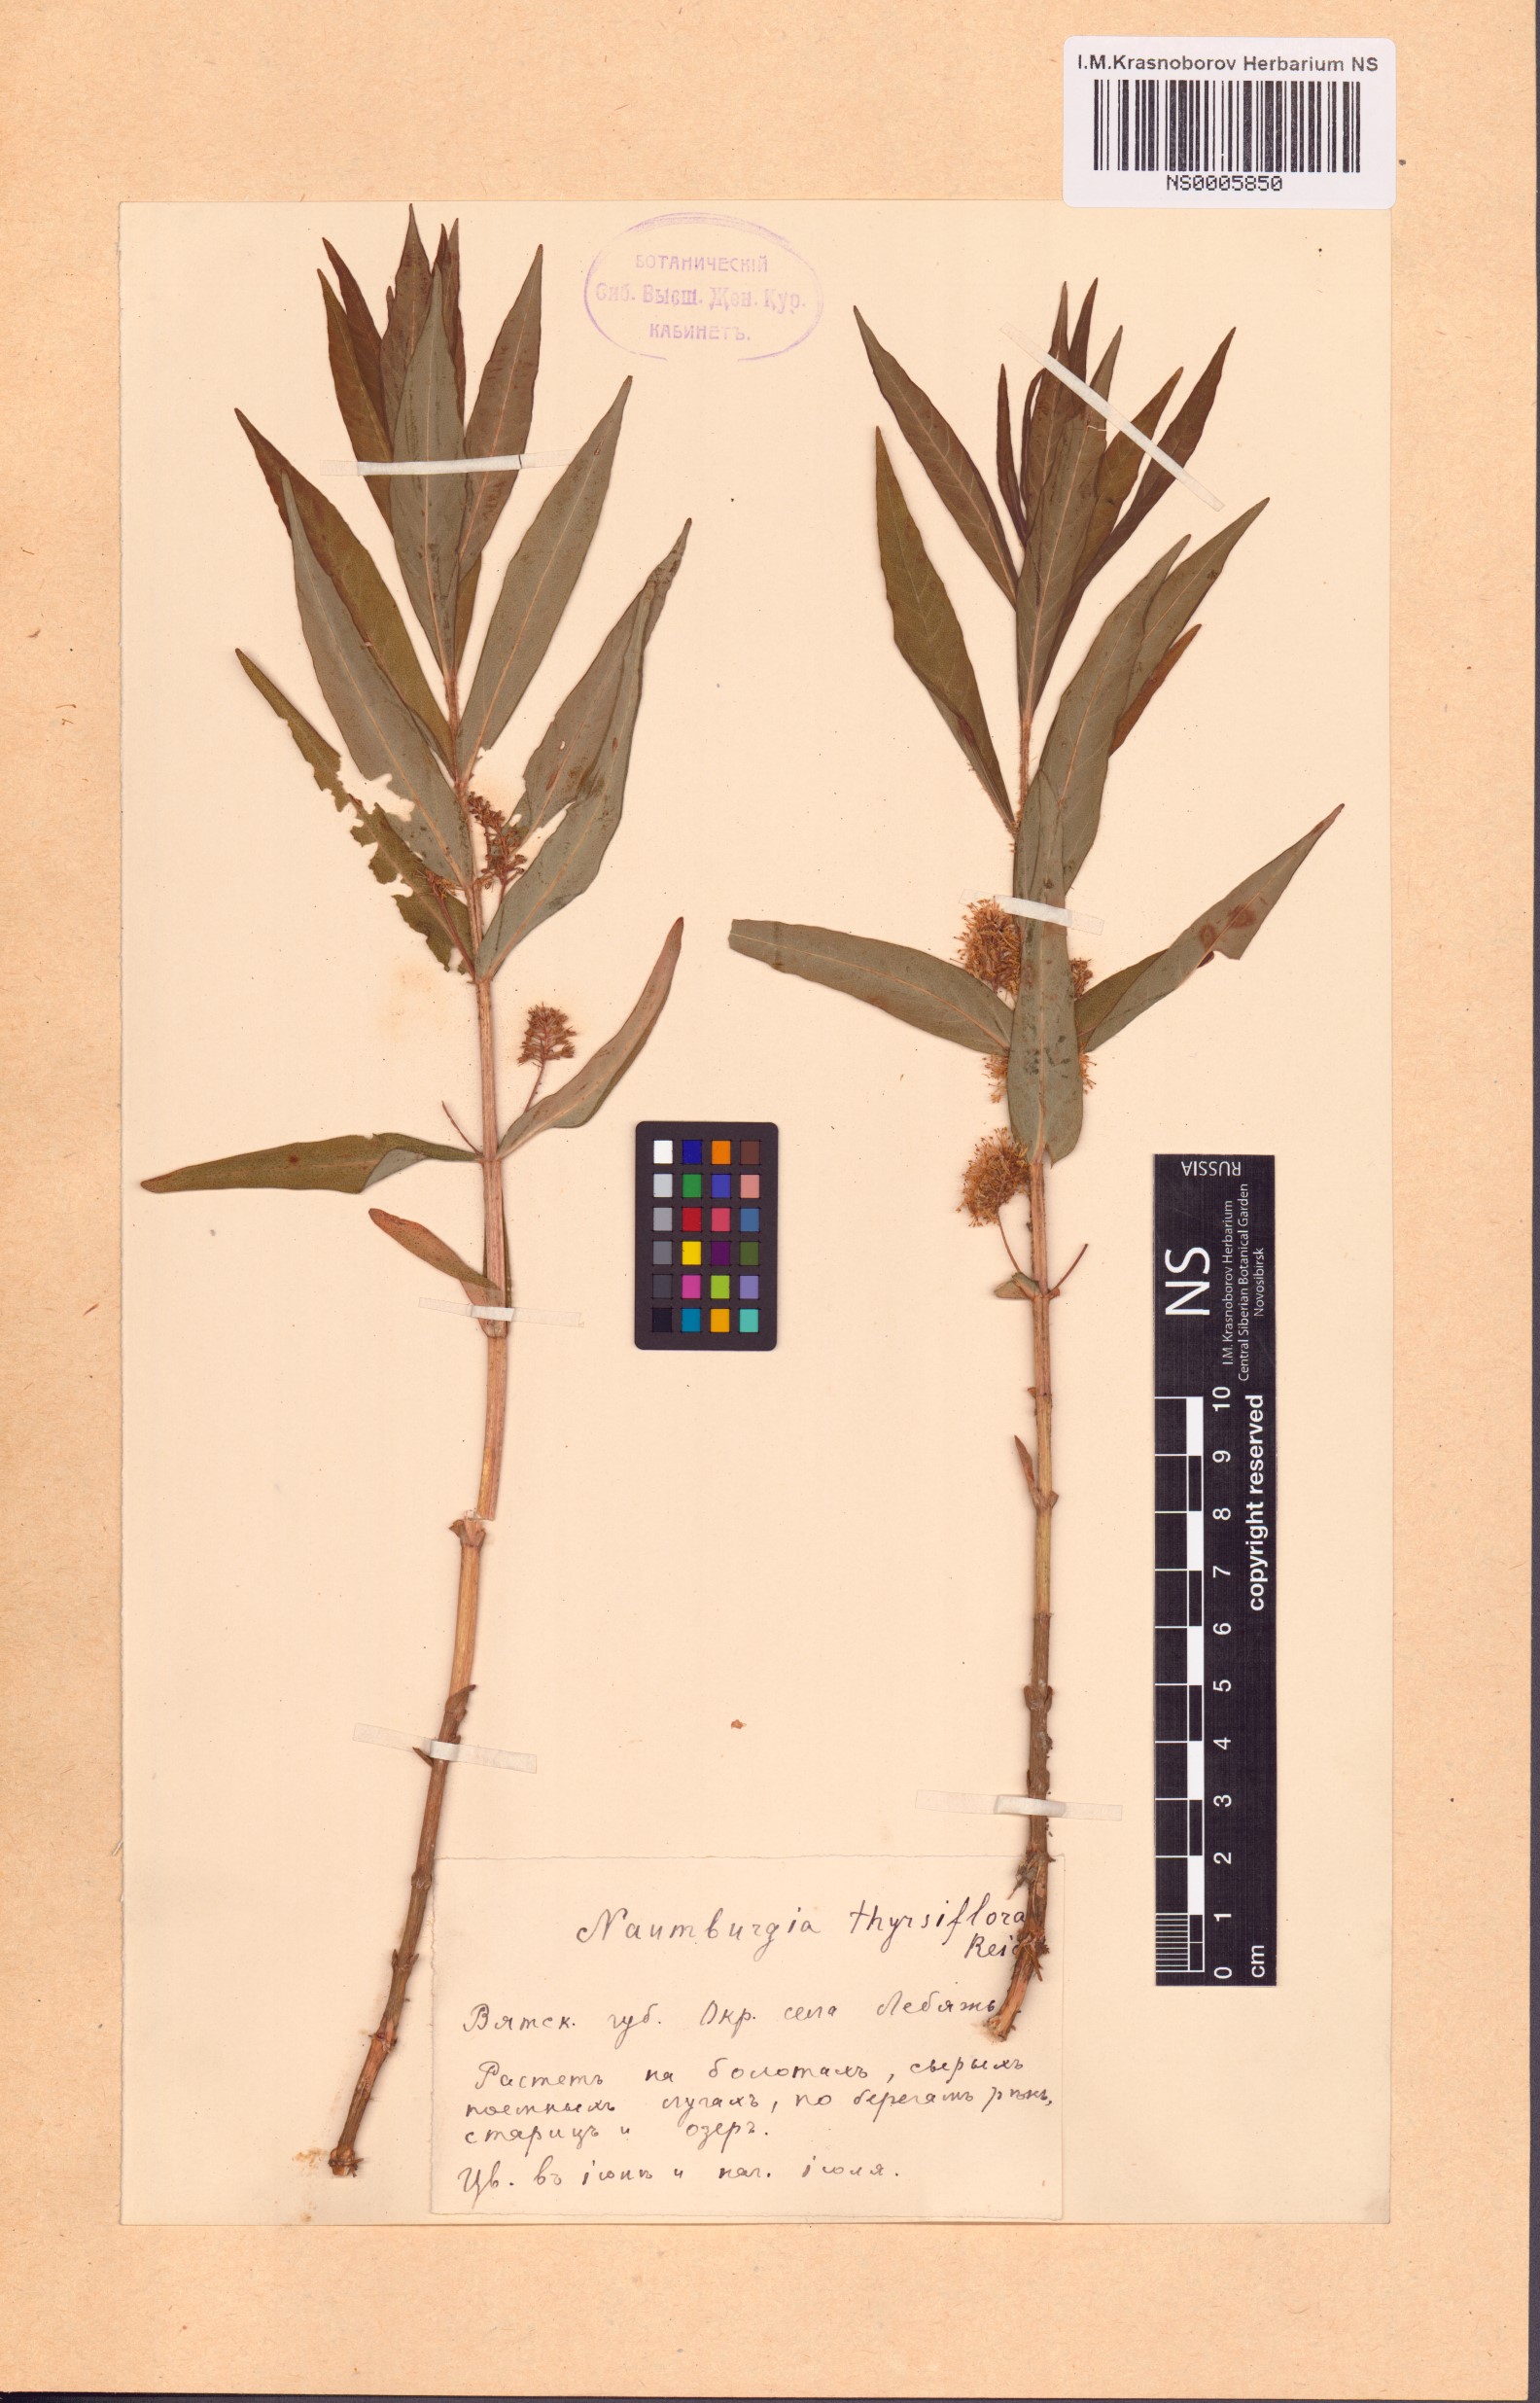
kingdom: Plantae
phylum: Tracheophyta
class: Magnoliopsida
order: Ericales
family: Primulaceae
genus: Lysimachia
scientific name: Lysimachia thyrsiflora
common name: Tufted loosestrife
